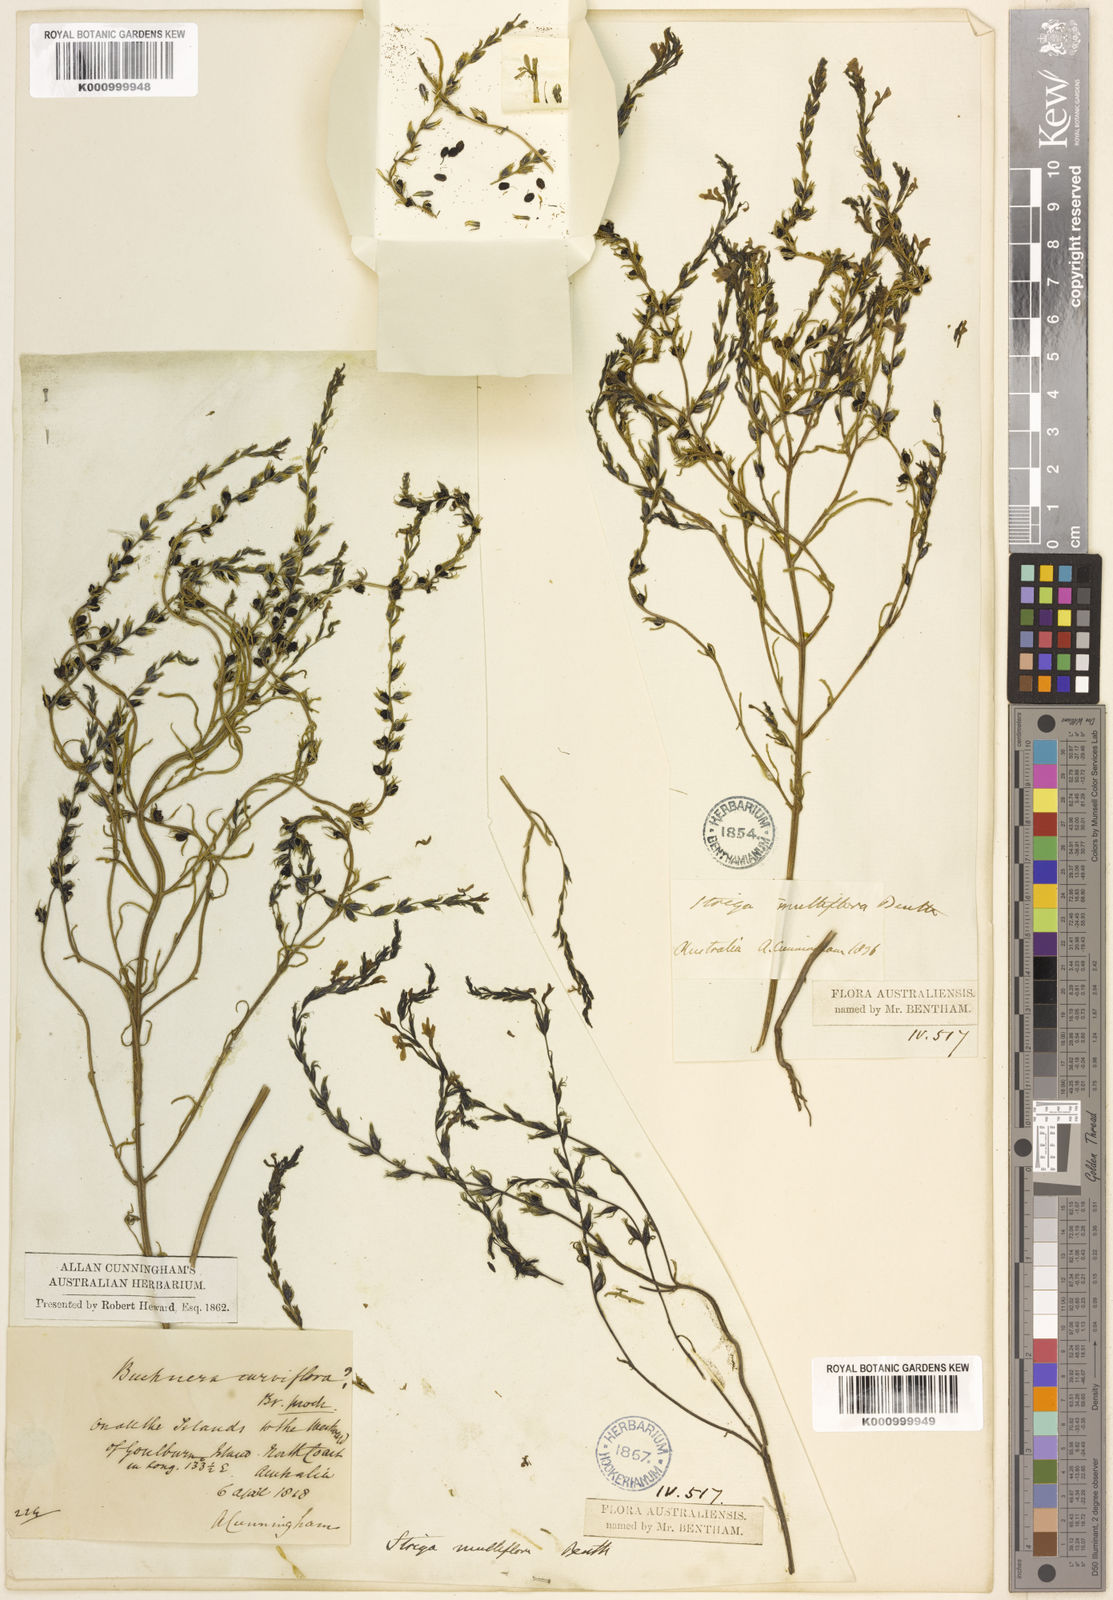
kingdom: Plantae
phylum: Tracheophyta
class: Magnoliopsida
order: Lamiales
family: Orobanchaceae
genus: Striga
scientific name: Striga multiflora
